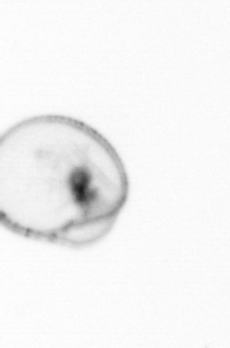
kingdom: Chromista
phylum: Myzozoa
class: Dinophyceae
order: Noctilucales
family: Noctilucaceae
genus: Noctiluca
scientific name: Noctiluca scintillans
